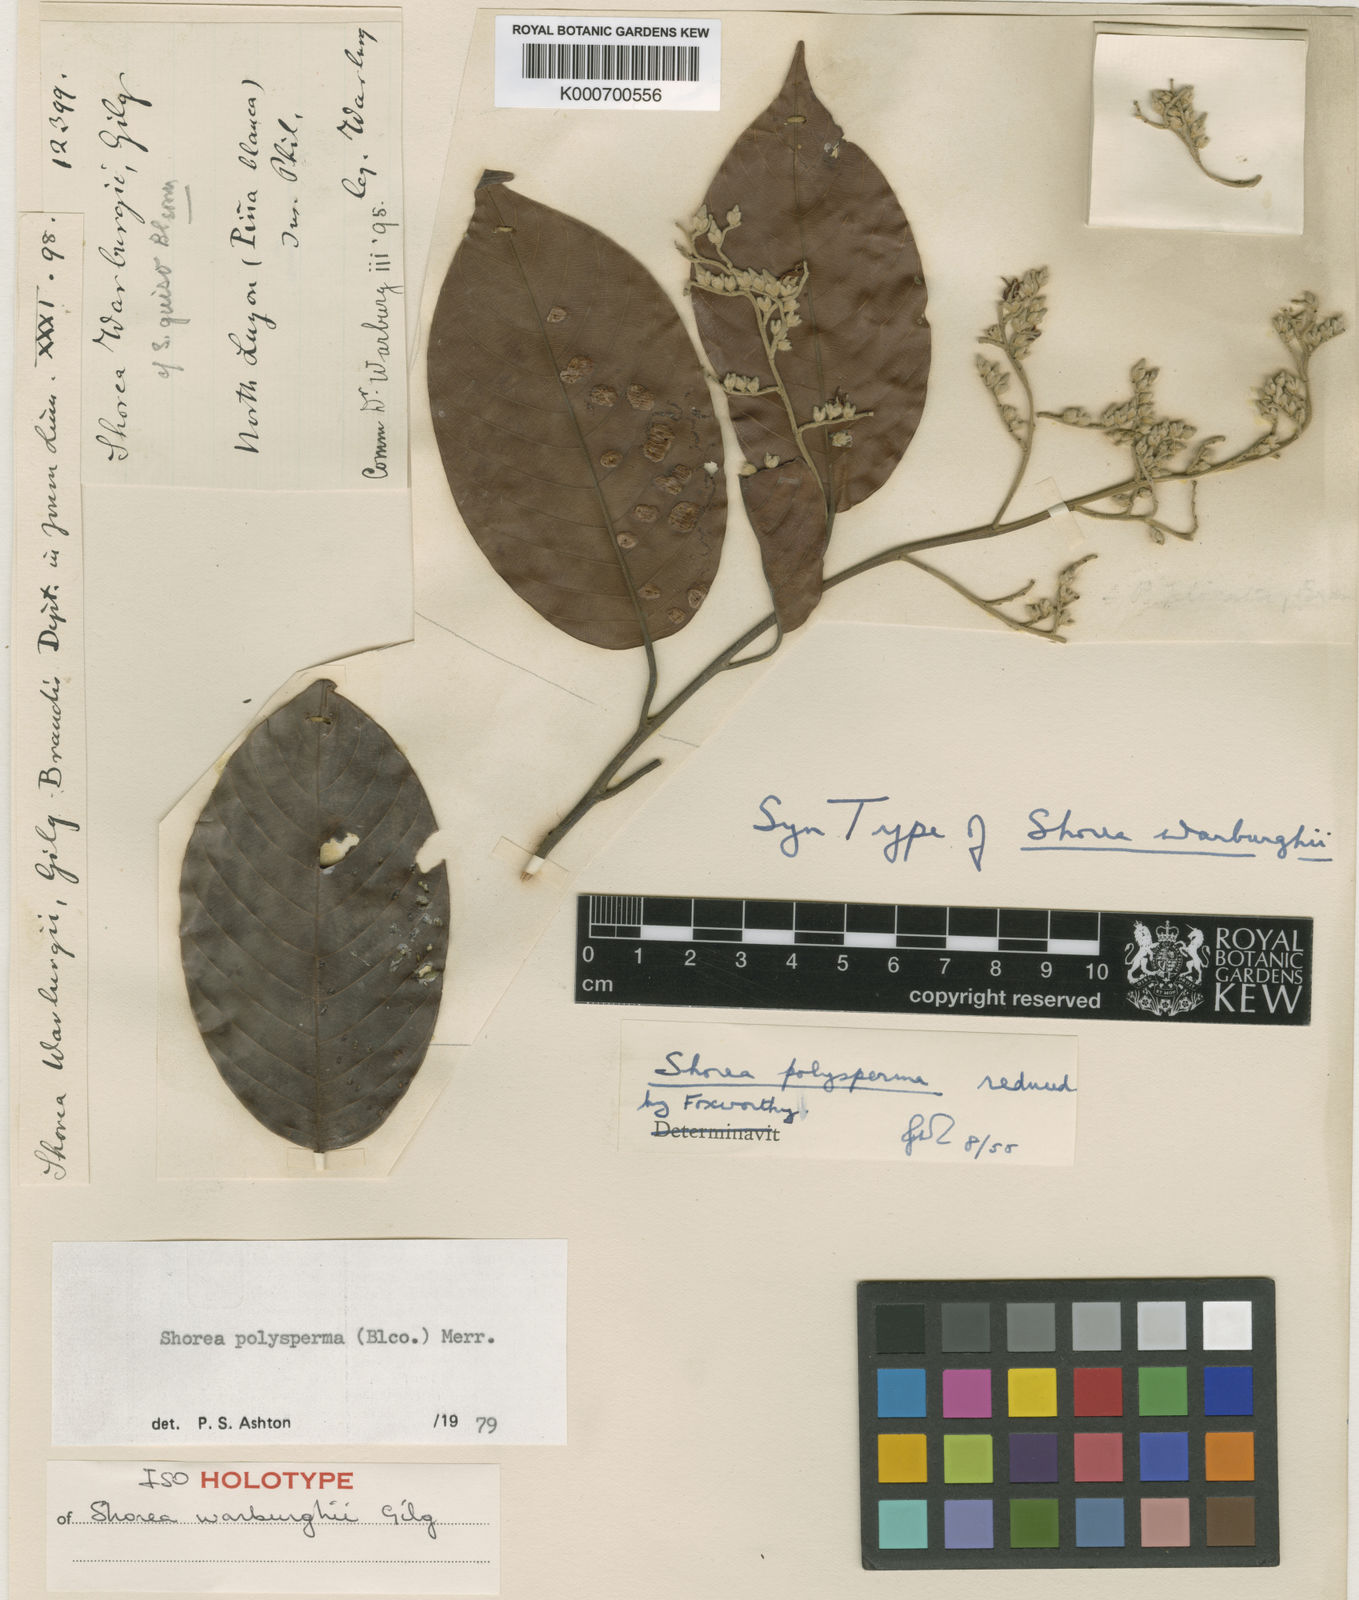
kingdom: Plantae
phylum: Tracheophyta
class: Magnoliopsida
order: Malvales
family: Dipterocarpaceae
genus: Shorea
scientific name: Shorea polysperma
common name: Dark-red philippine-mahogany
